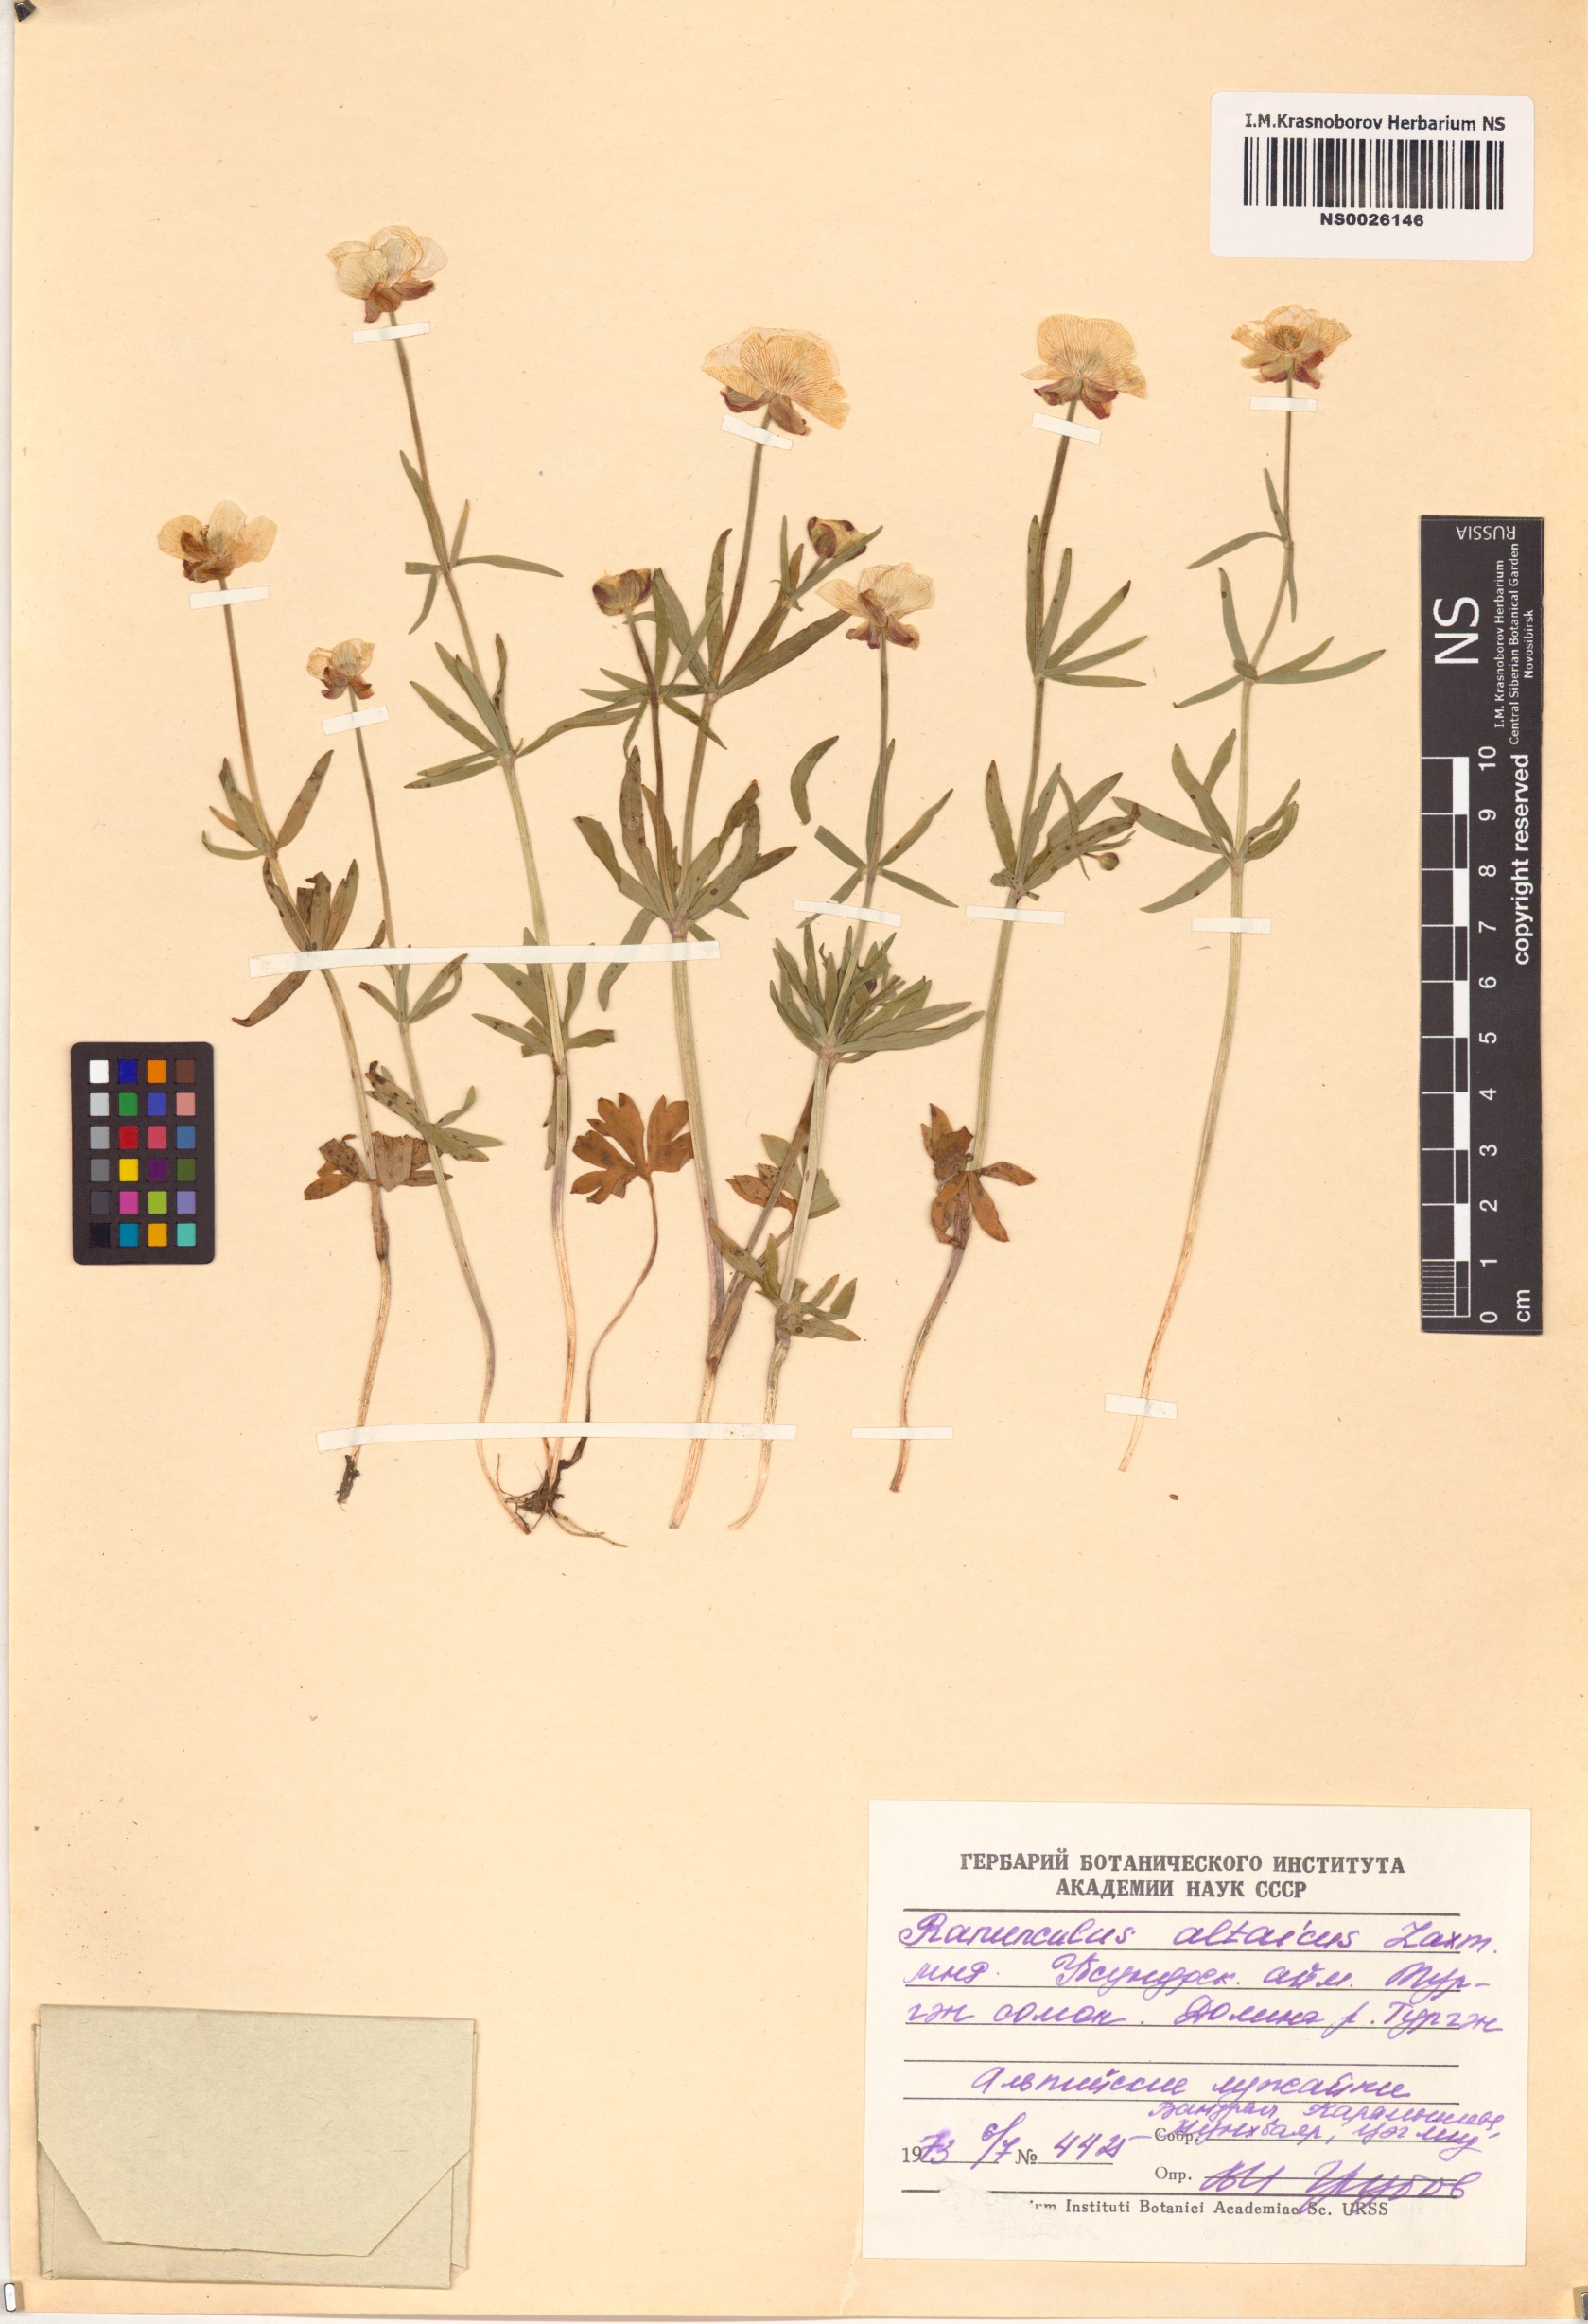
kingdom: Plantae
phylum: Tracheophyta
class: Magnoliopsida
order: Ranunculales
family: Ranunculaceae
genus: Ranunculus
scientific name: Ranunculus altaicus
